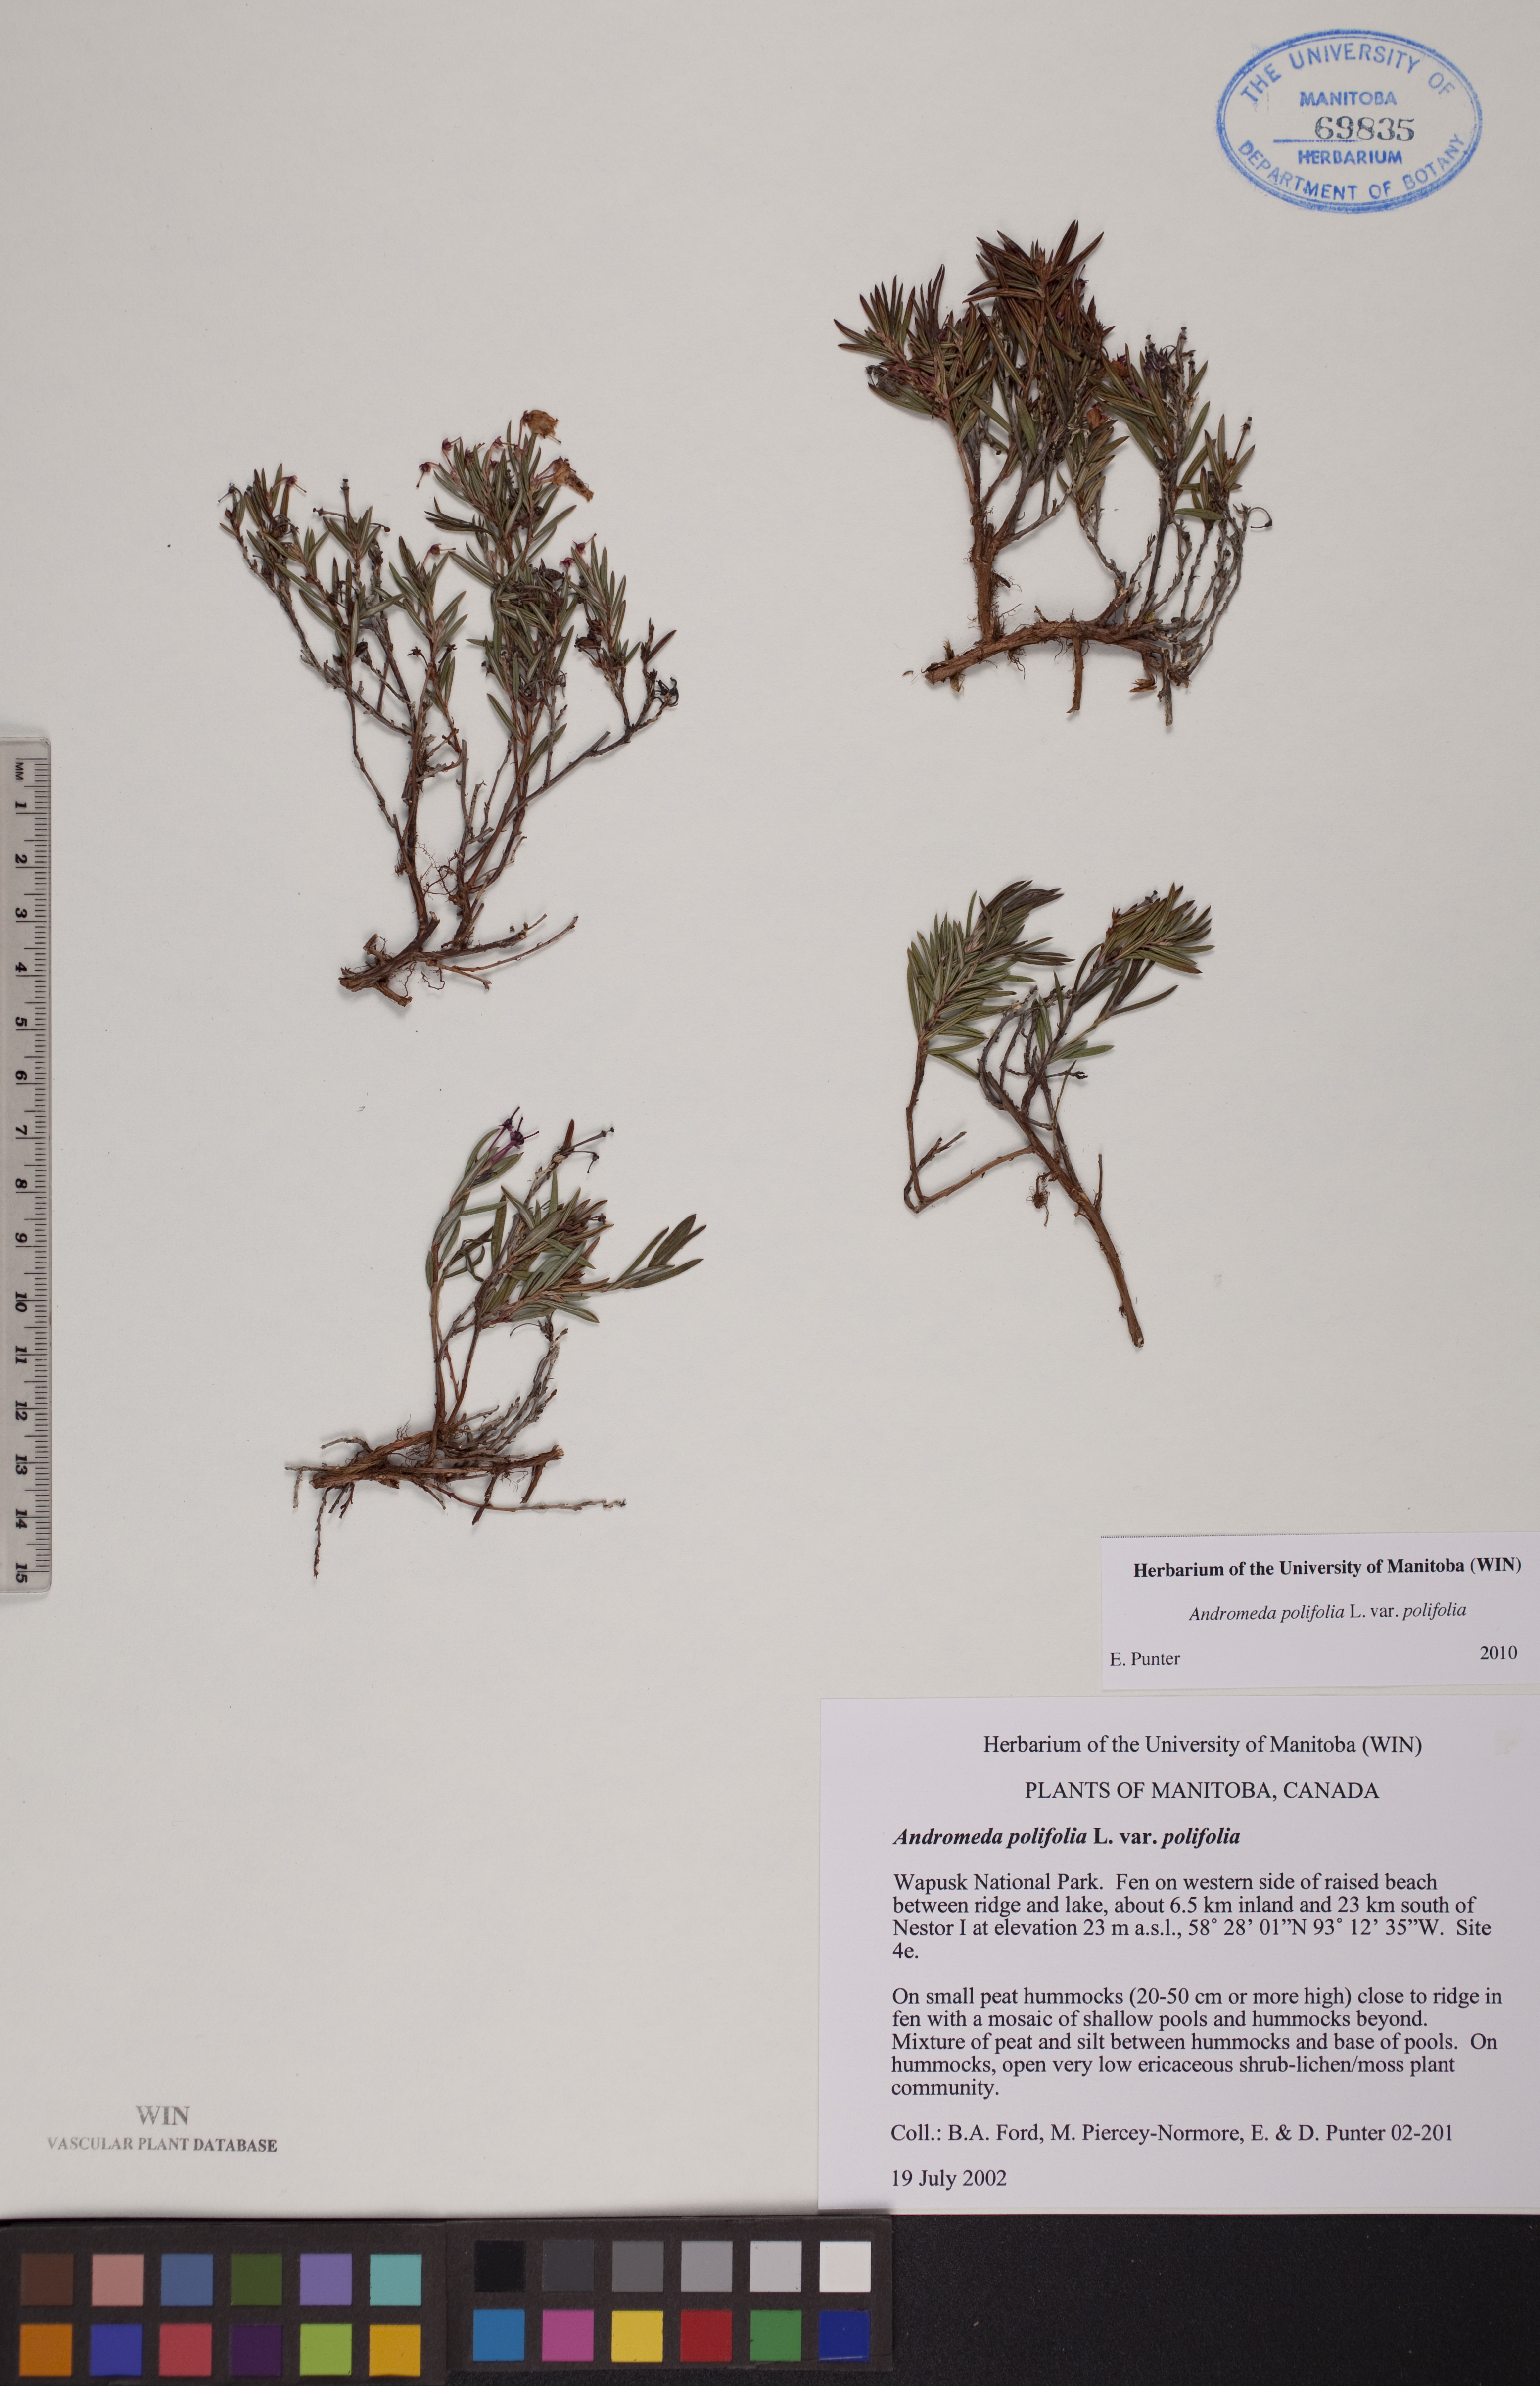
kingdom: Plantae
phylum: Tracheophyta
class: Magnoliopsida
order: Ericales
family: Ericaceae
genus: Andromeda
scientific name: Andromeda polifolia
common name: Bog-rosemary
